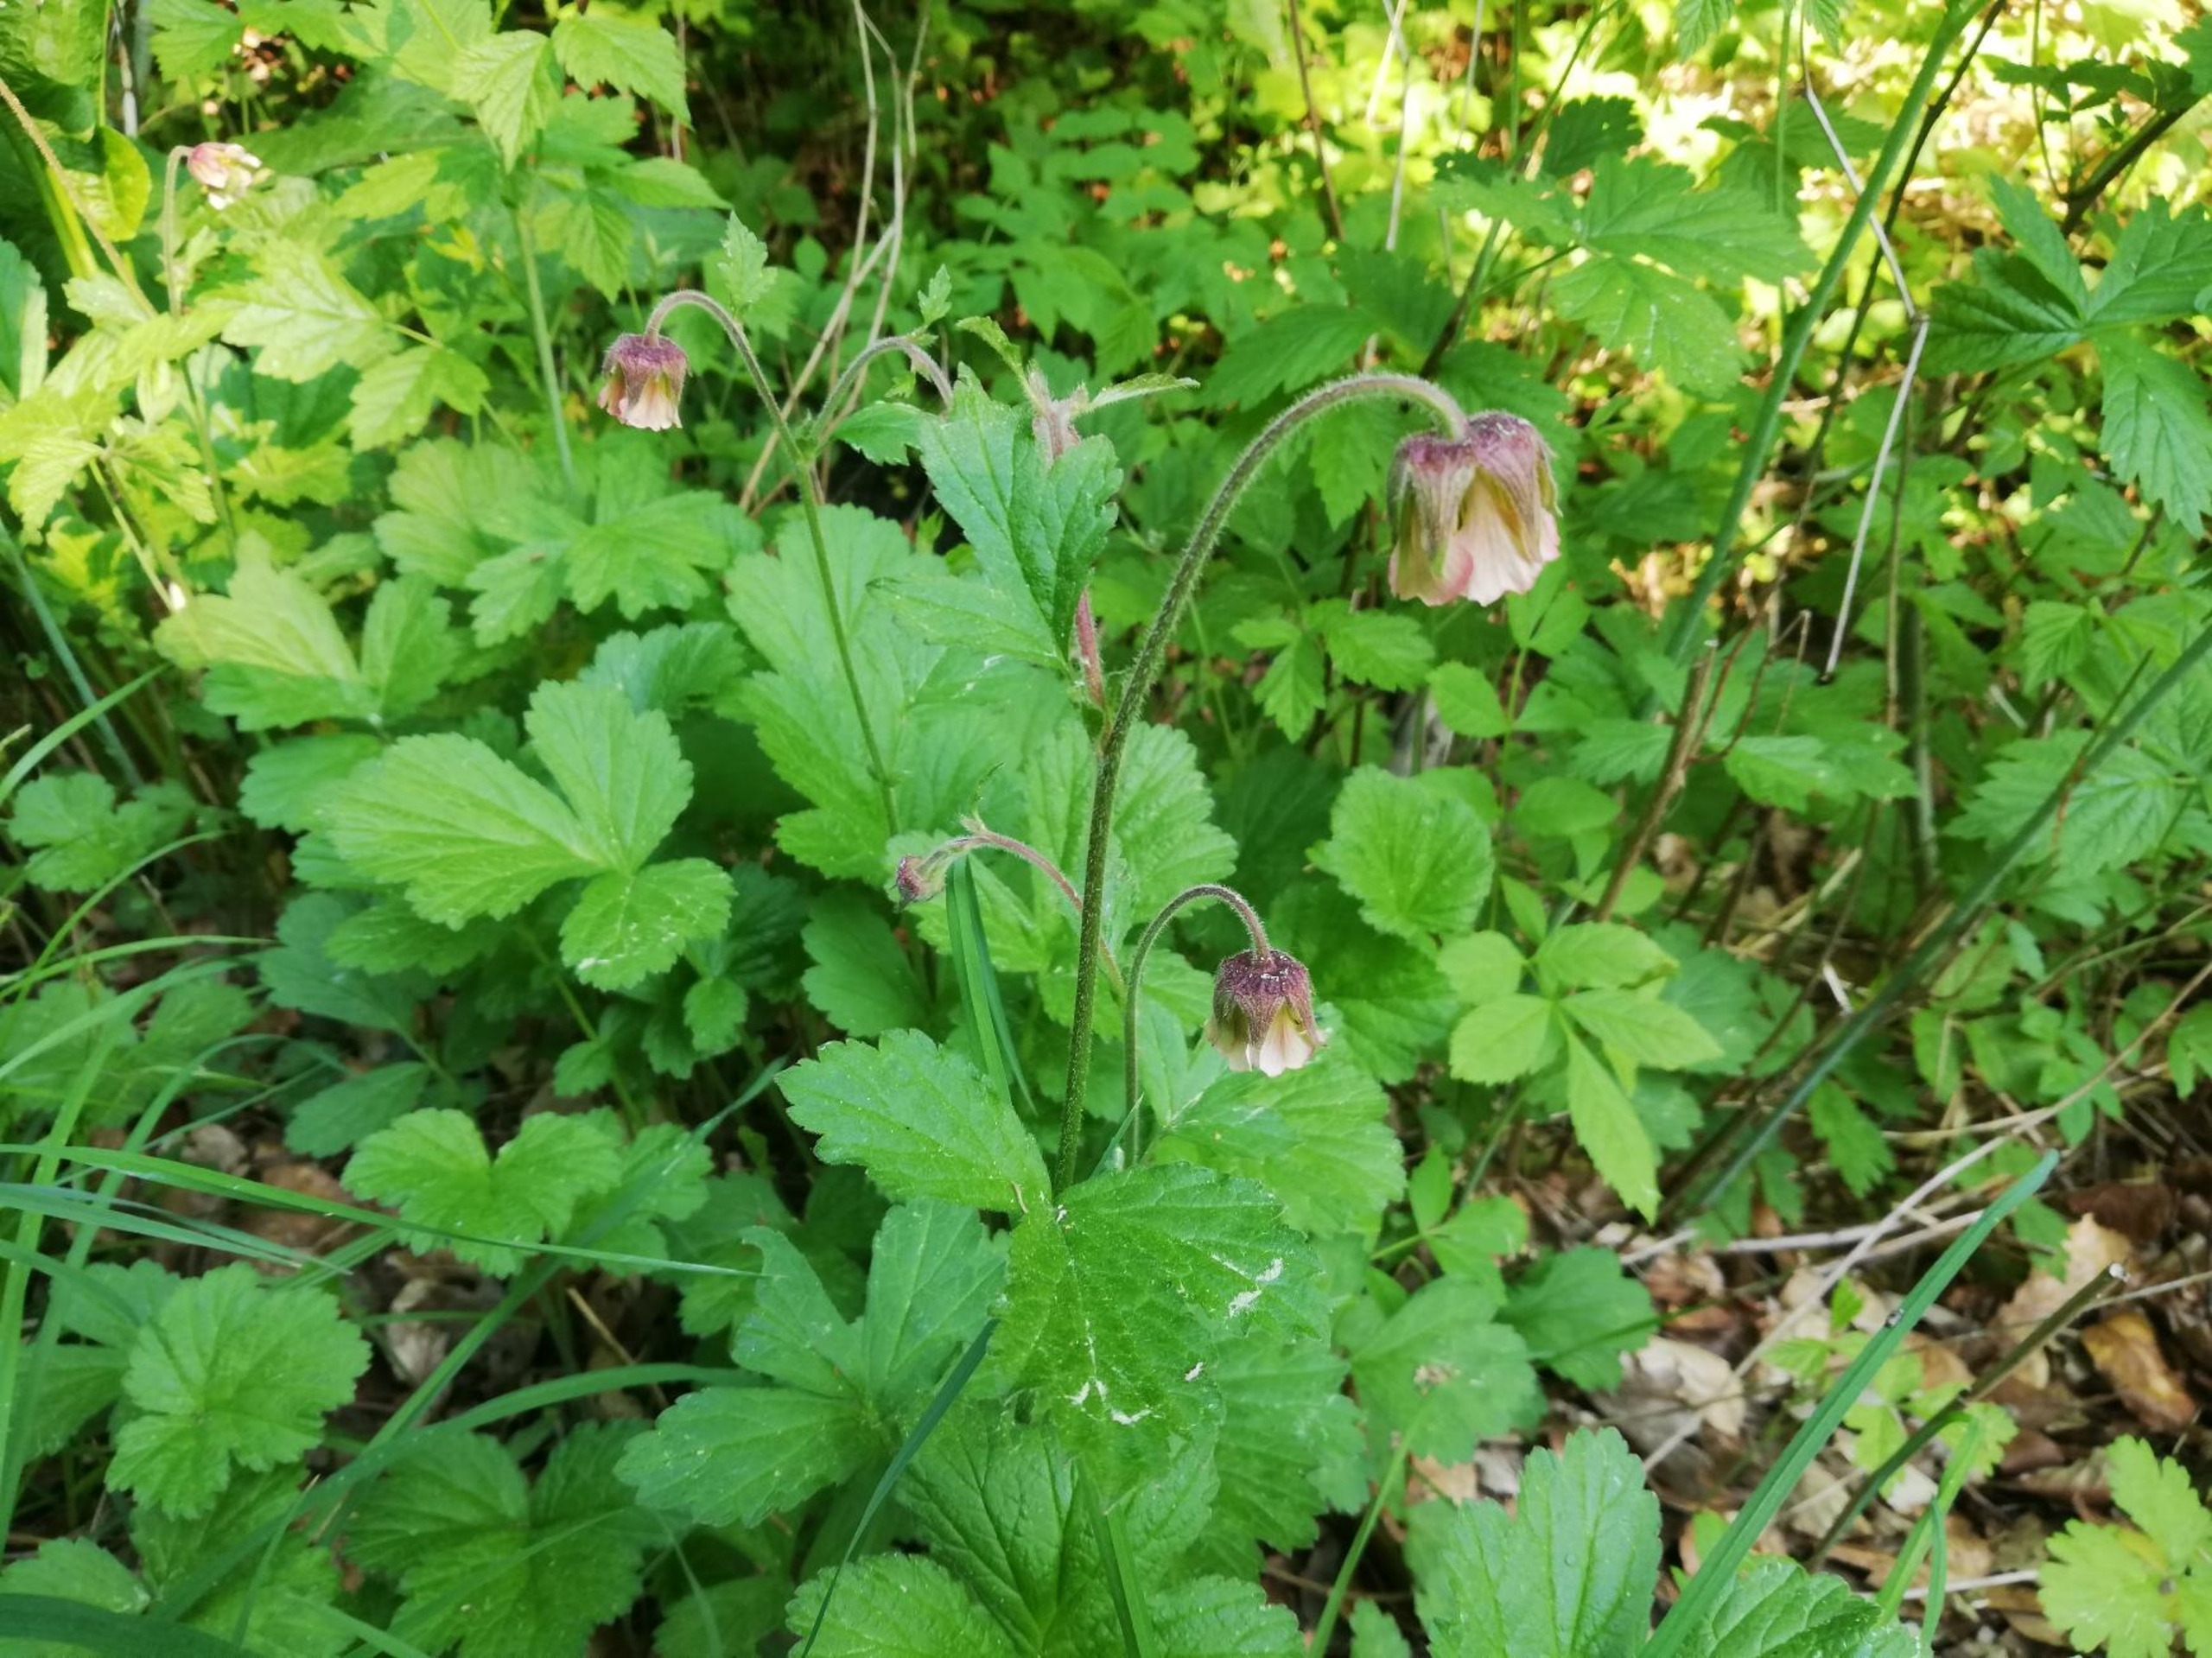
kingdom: Plantae
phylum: Tracheophyta
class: Magnoliopsida
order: Rosales
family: Rosaceae
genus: Geum
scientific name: Geum rivale
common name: Eng-nellikerod
